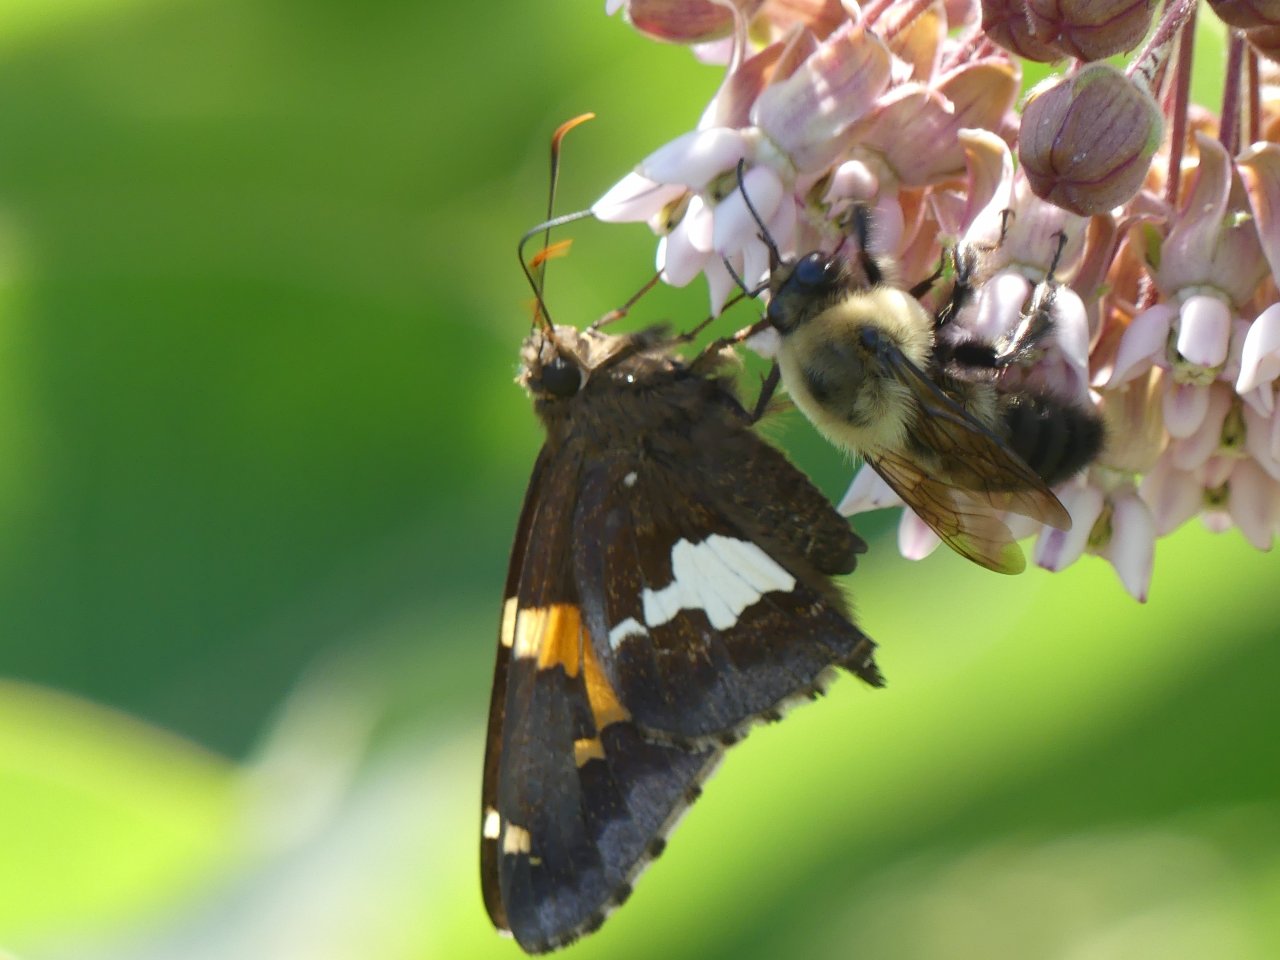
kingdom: Animalia
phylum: Arthropoda
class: Insecta
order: Lepidoptera
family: Hesperiidae
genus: Epargyreus
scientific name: Epargyreus clarus
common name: Silver-spotted Skipper
